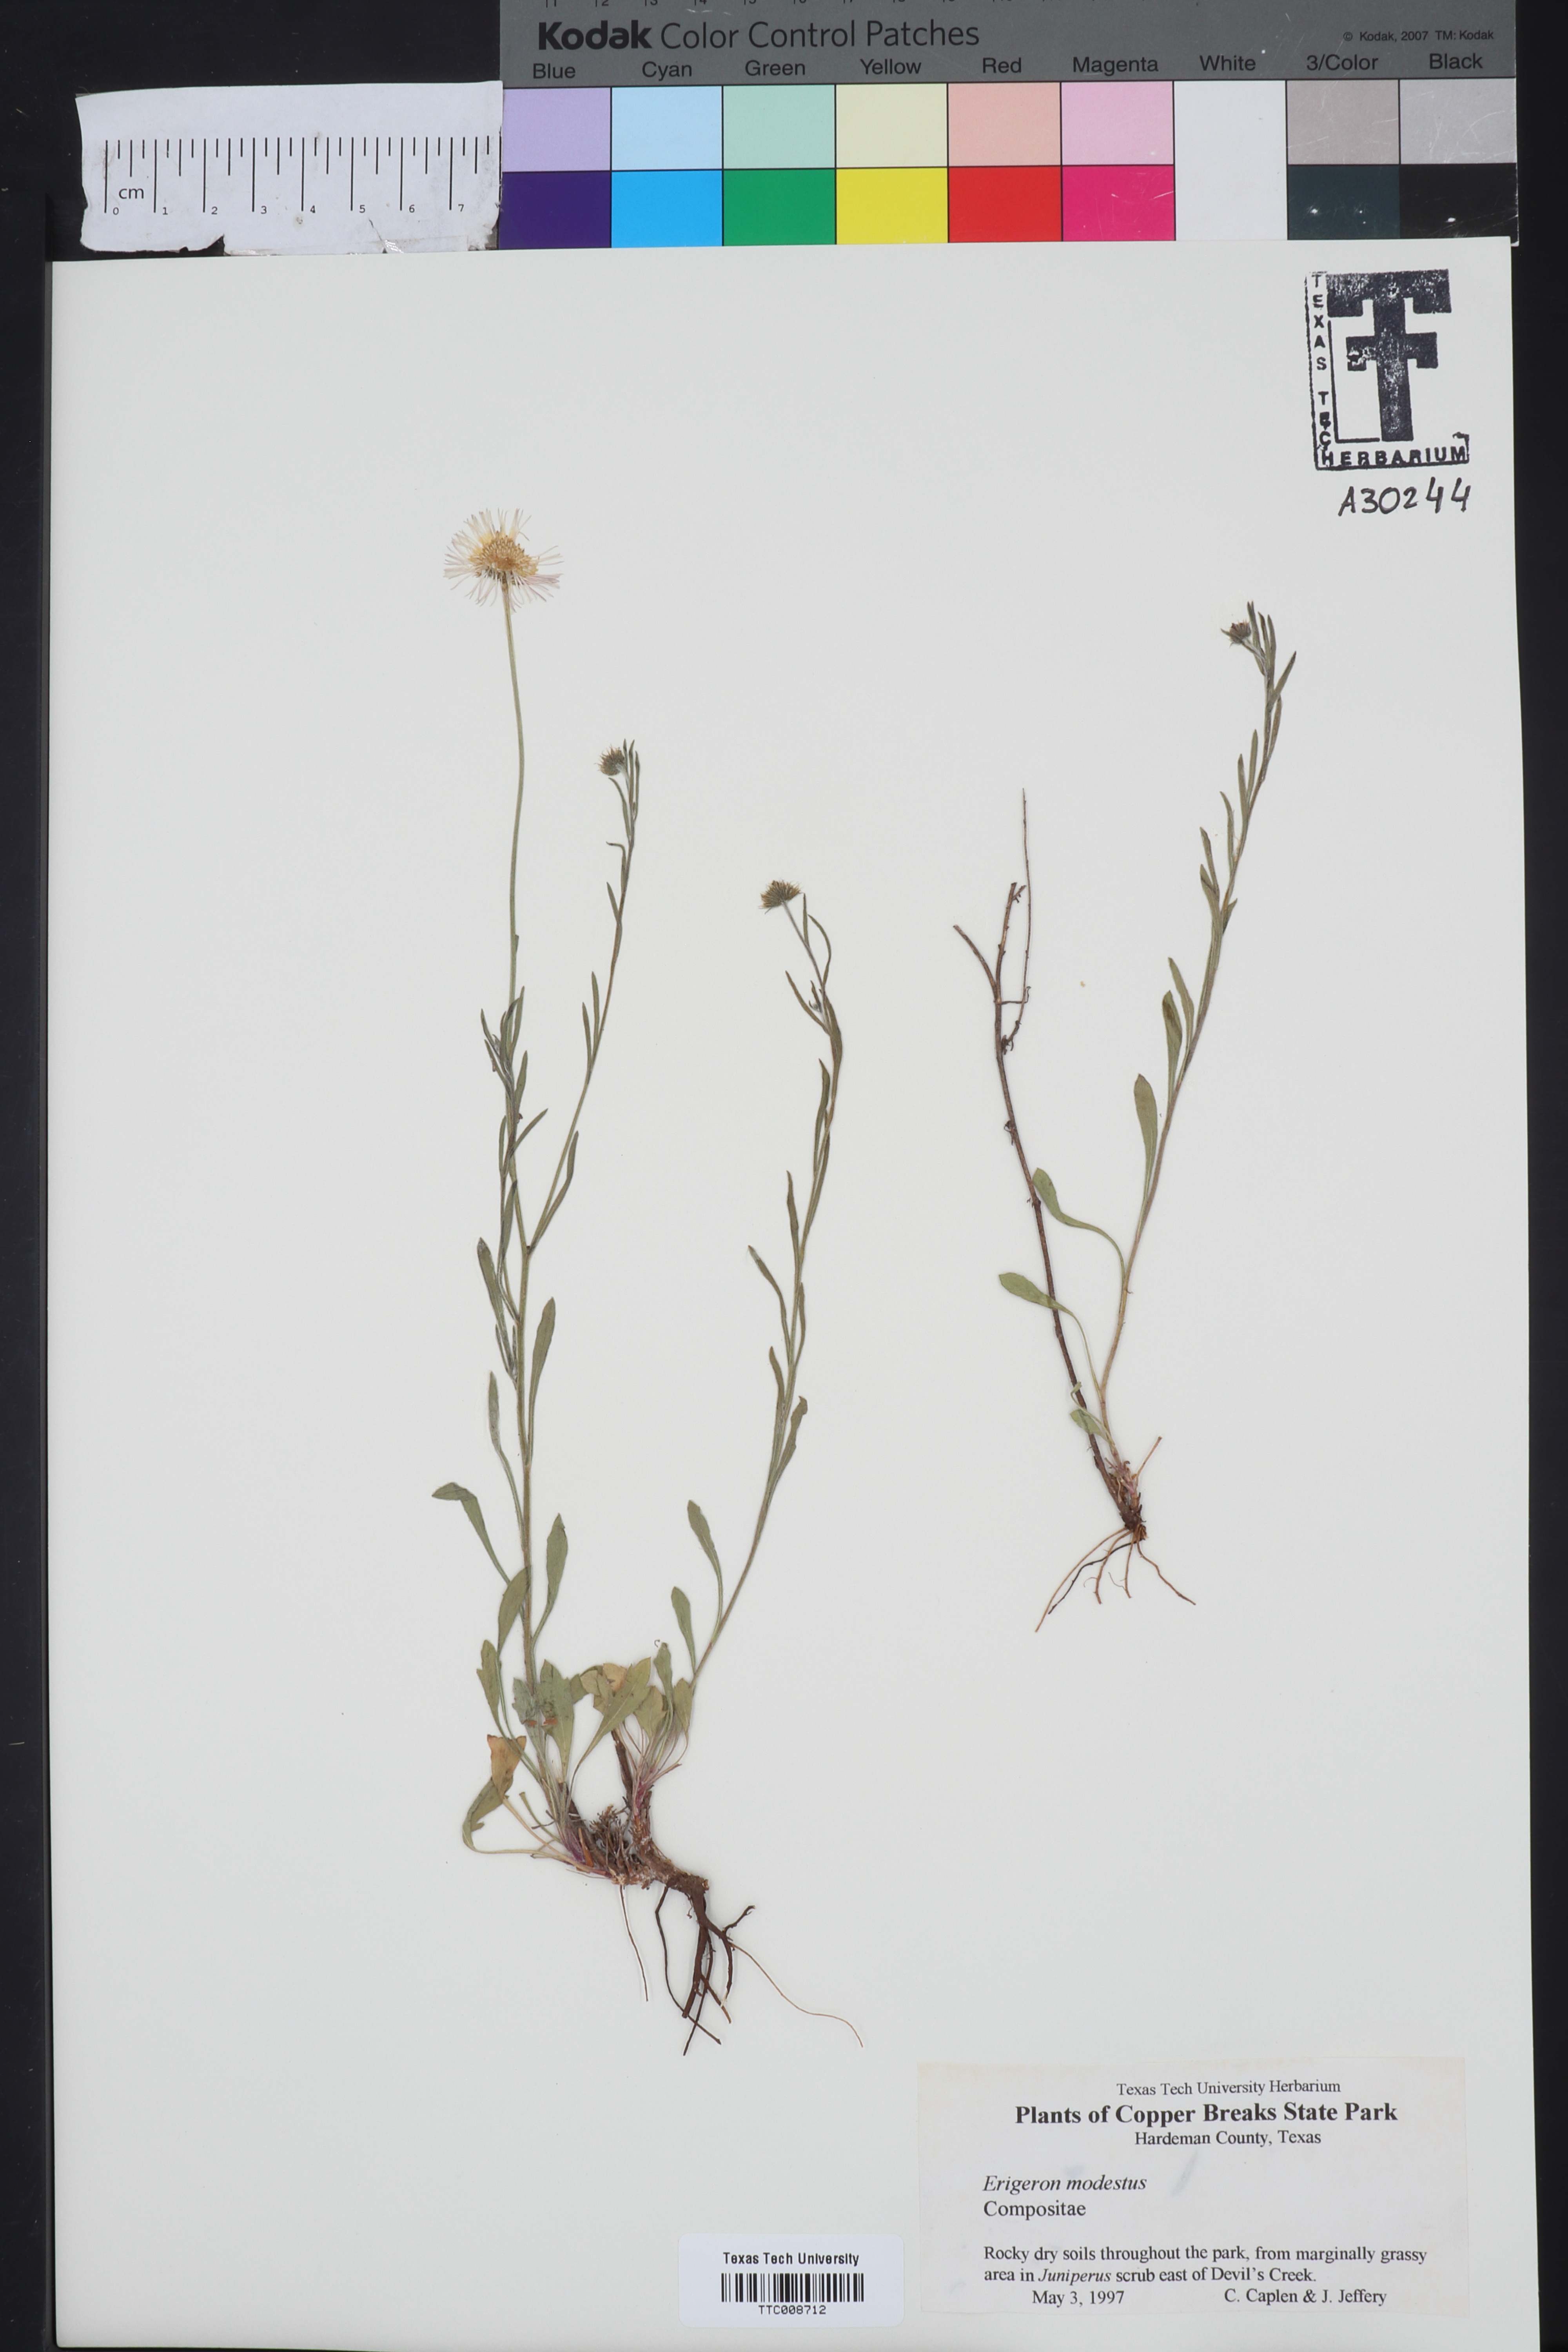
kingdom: Plantae
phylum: Tracheophyta
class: Magnoliopsida
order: Asterales
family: Asteraceae
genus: Erigeron
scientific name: Erigeron modestus
